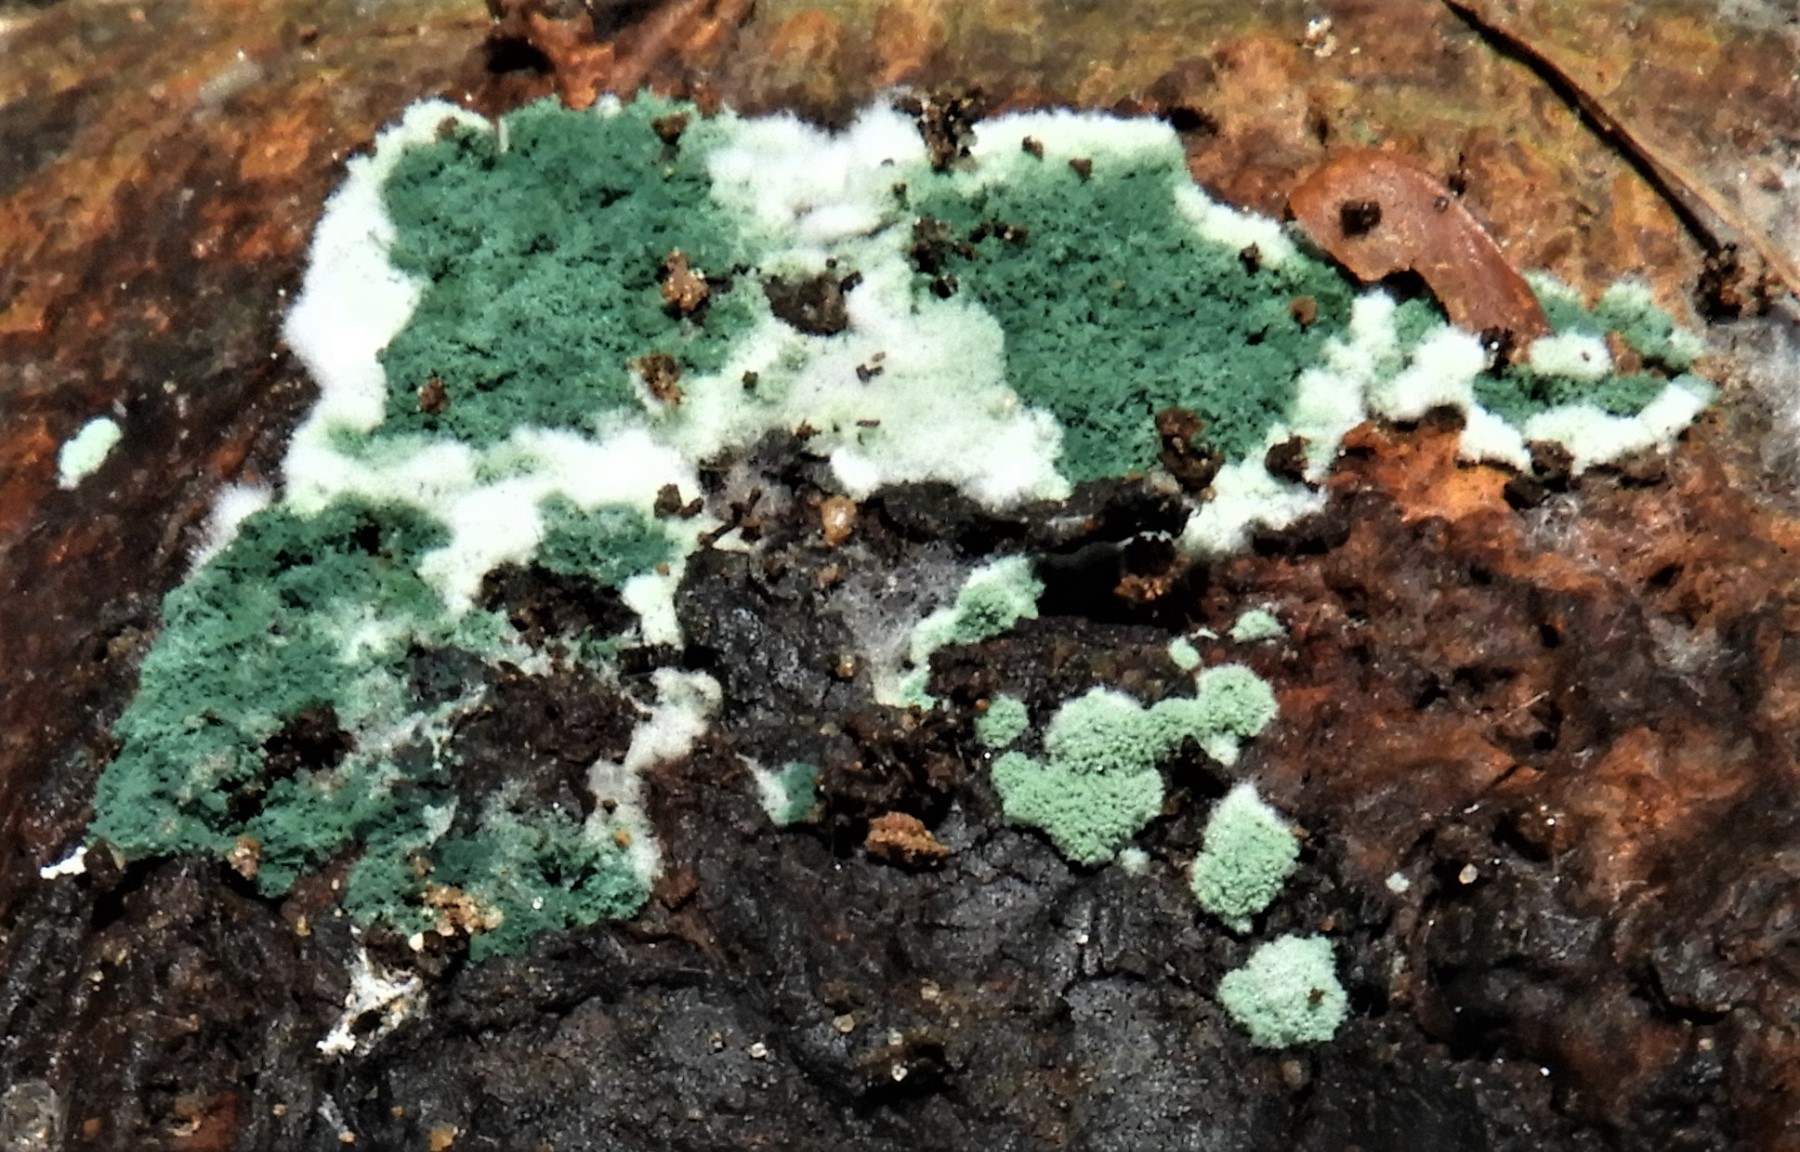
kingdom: Fungi
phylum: Ascomycota
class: Sordariomycetes
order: Hypocreales
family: Hypocreaceae
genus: Trichoderma
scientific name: Trichoderma
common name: kødkerne
